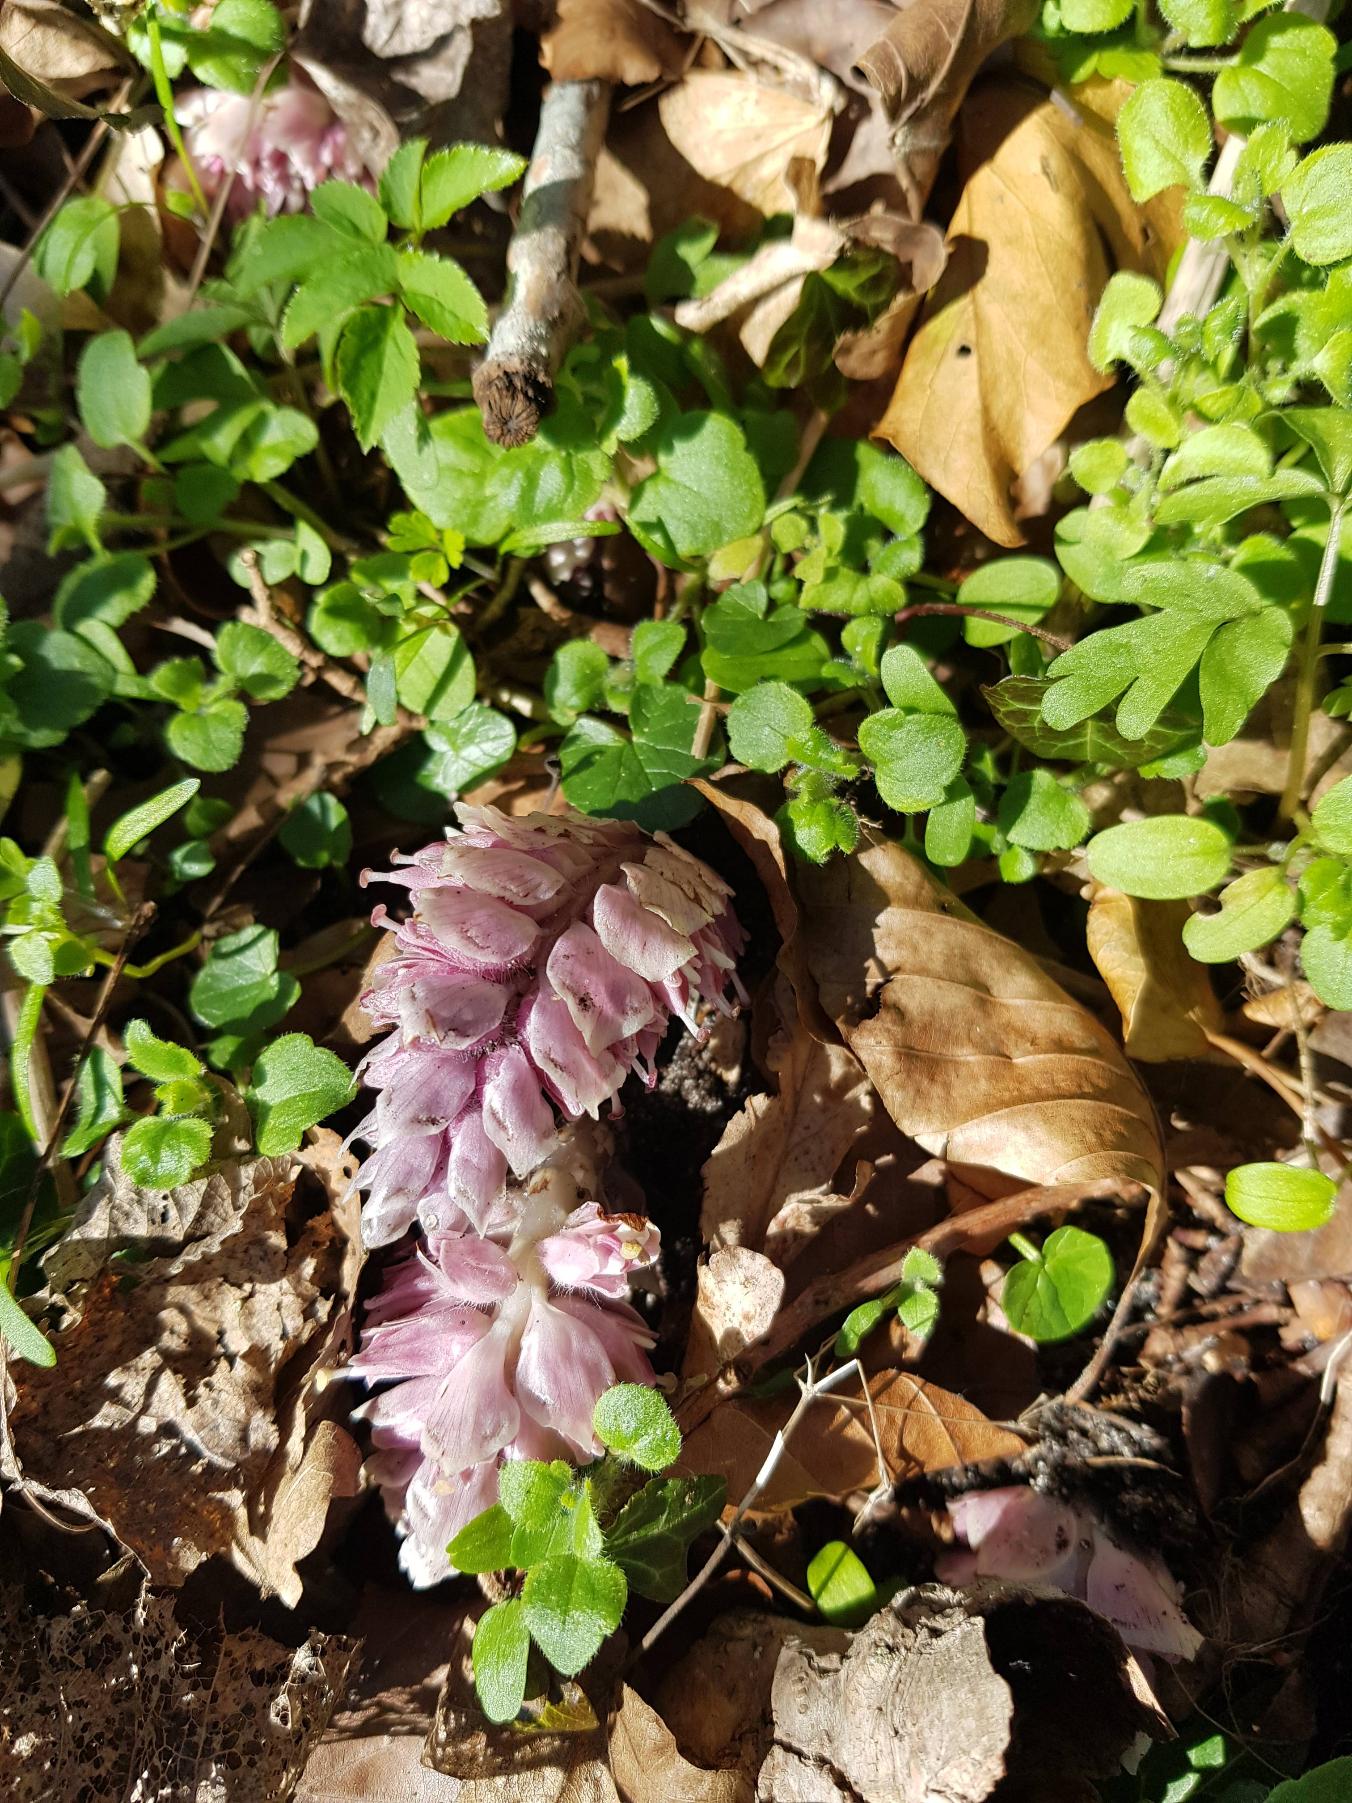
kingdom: Plantae
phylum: Tracheophyta
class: Magnoliopsida
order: Lamiales
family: Orobanchaceae
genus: Lathraea
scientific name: Lathraea squamaria
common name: Skælrod
